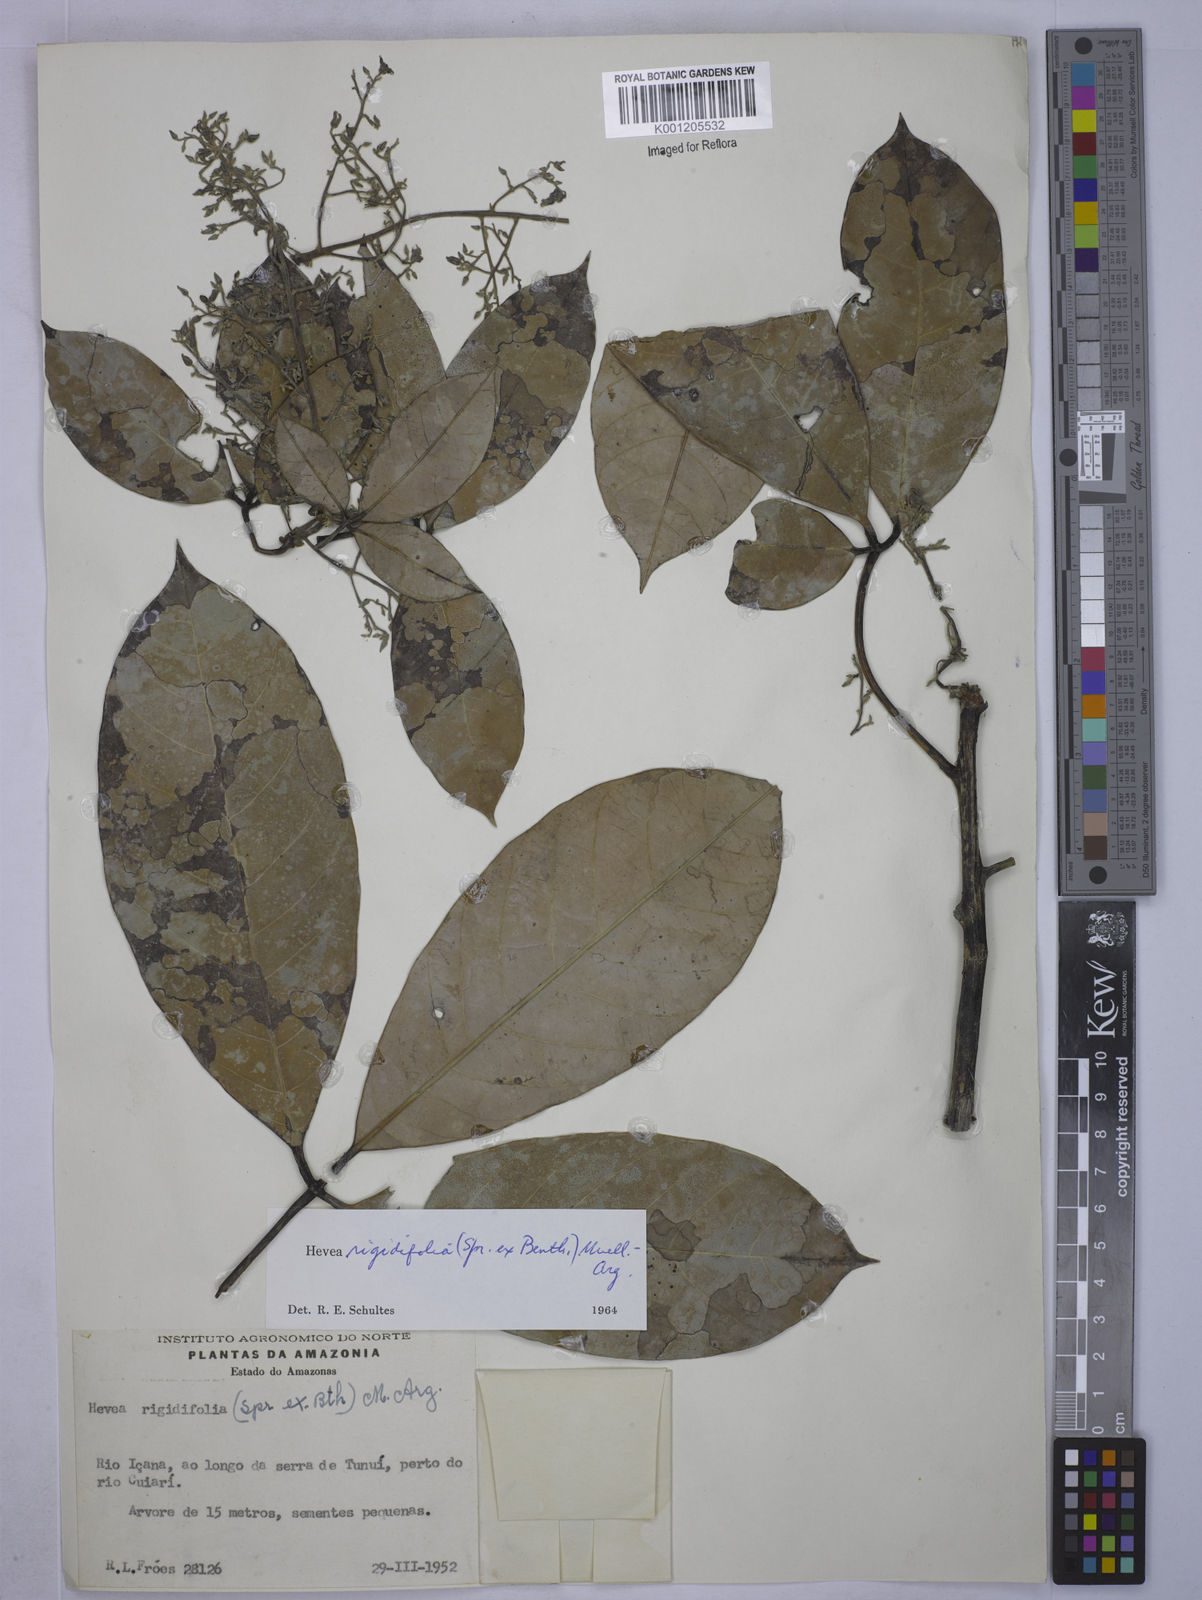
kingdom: Plantae
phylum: Tracheophyta
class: Magnoliopsida
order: Malpighiales
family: Euphorbiaceae
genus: Hevea
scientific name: Hevea
